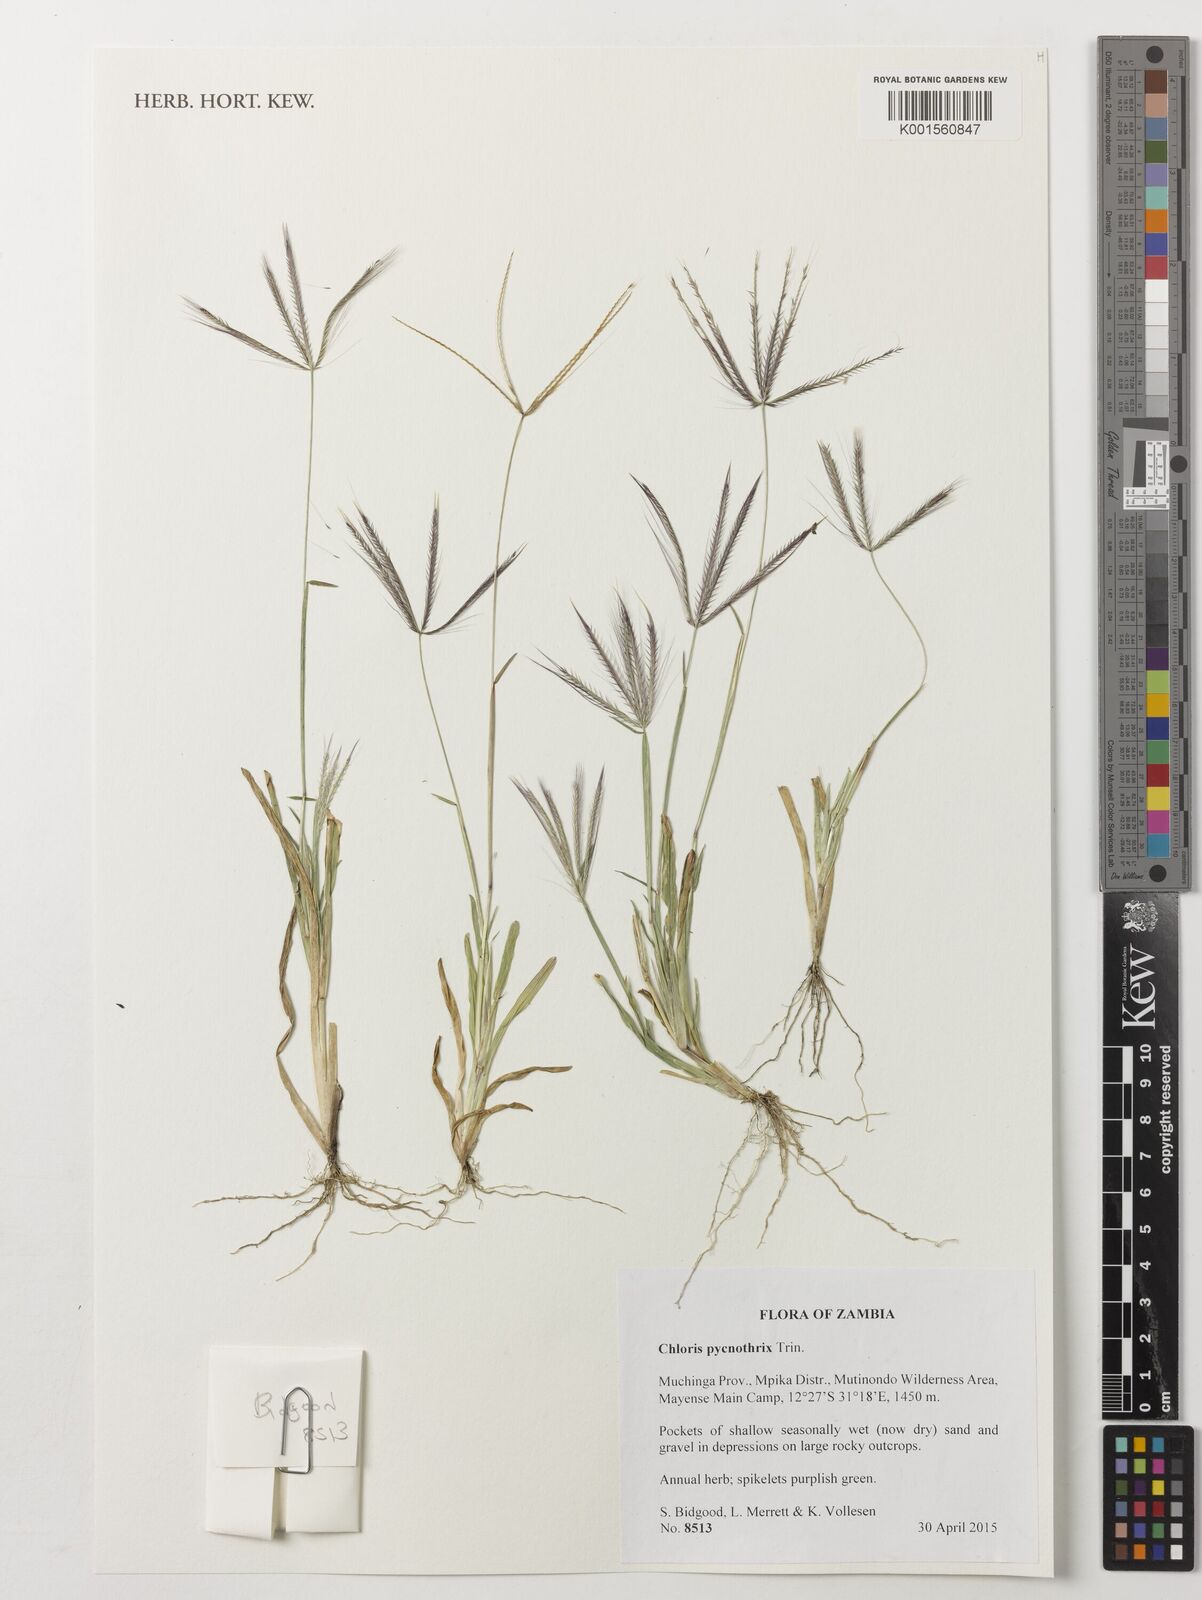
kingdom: Plantae
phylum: Tracheophyta
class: Liliopsida
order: Poales
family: Poaceae
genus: Chloris
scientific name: Chloris pycnothrix
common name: Spiderweb chloris
